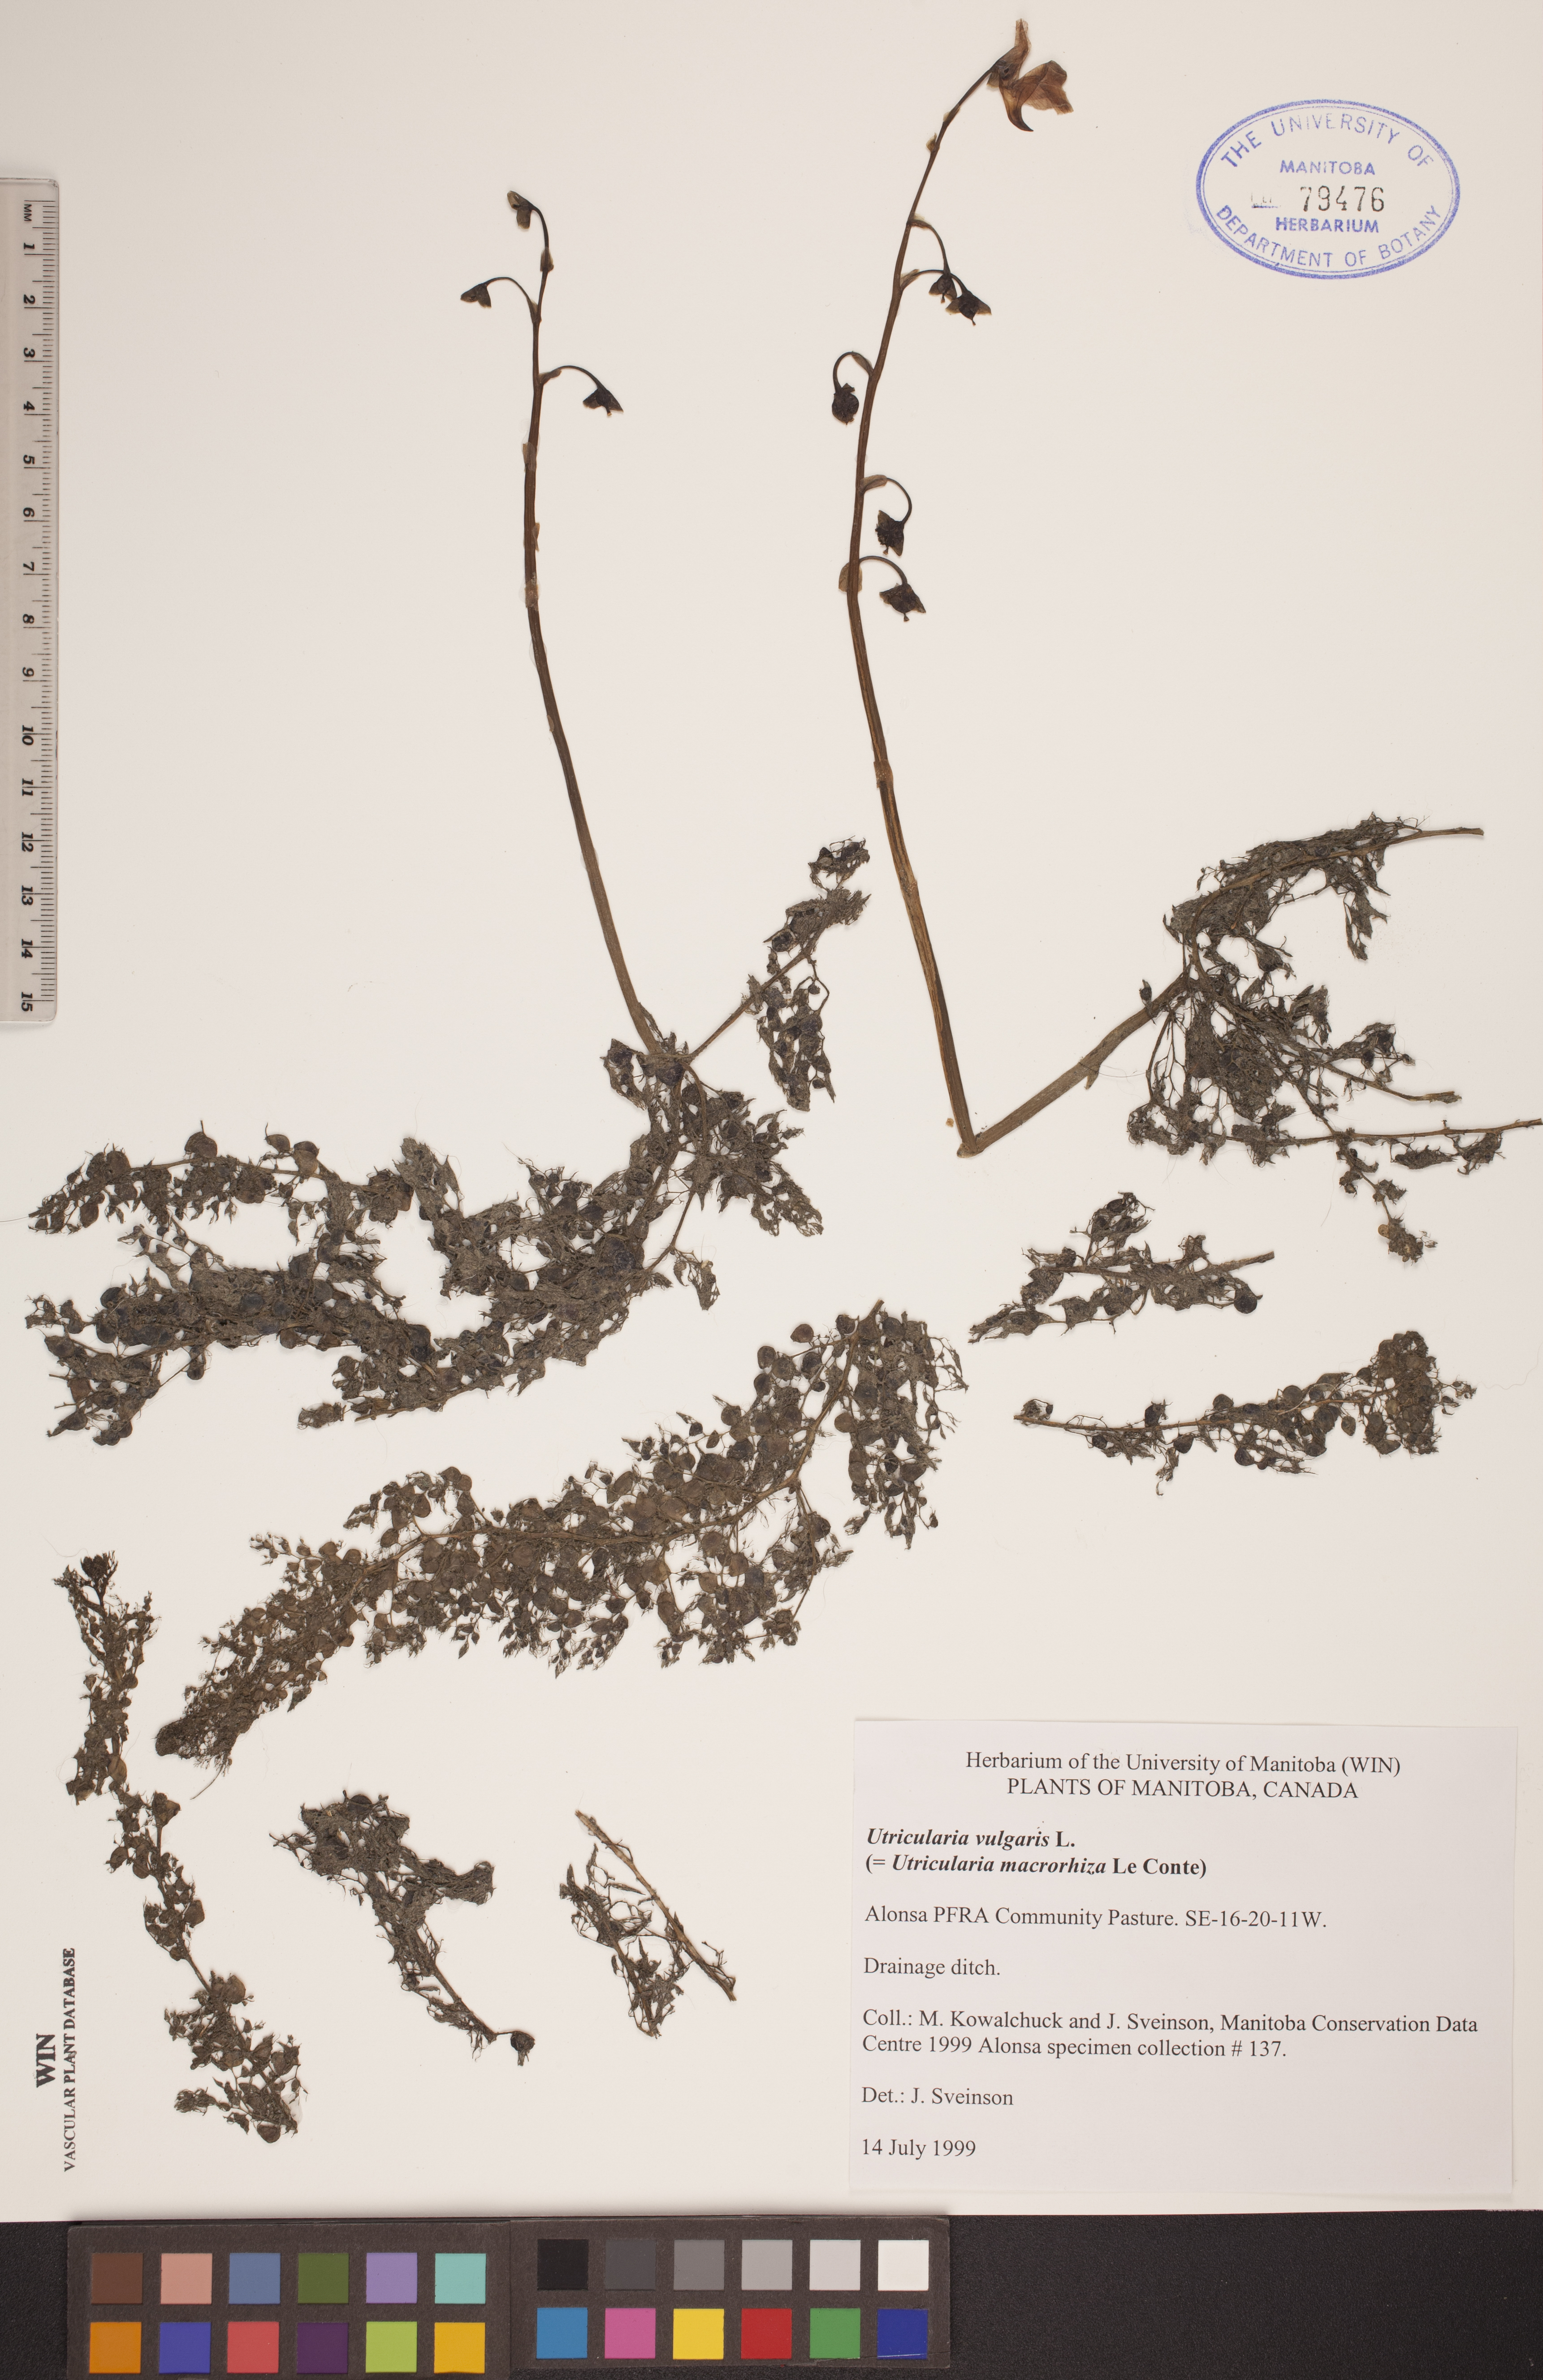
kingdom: Plantae
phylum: Tracheophyta
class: Magnoliopsida
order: Lamiales
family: Lentibulariaceae
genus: Utricularia
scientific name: Utricularia vulgaris
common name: Greater bladderwort
